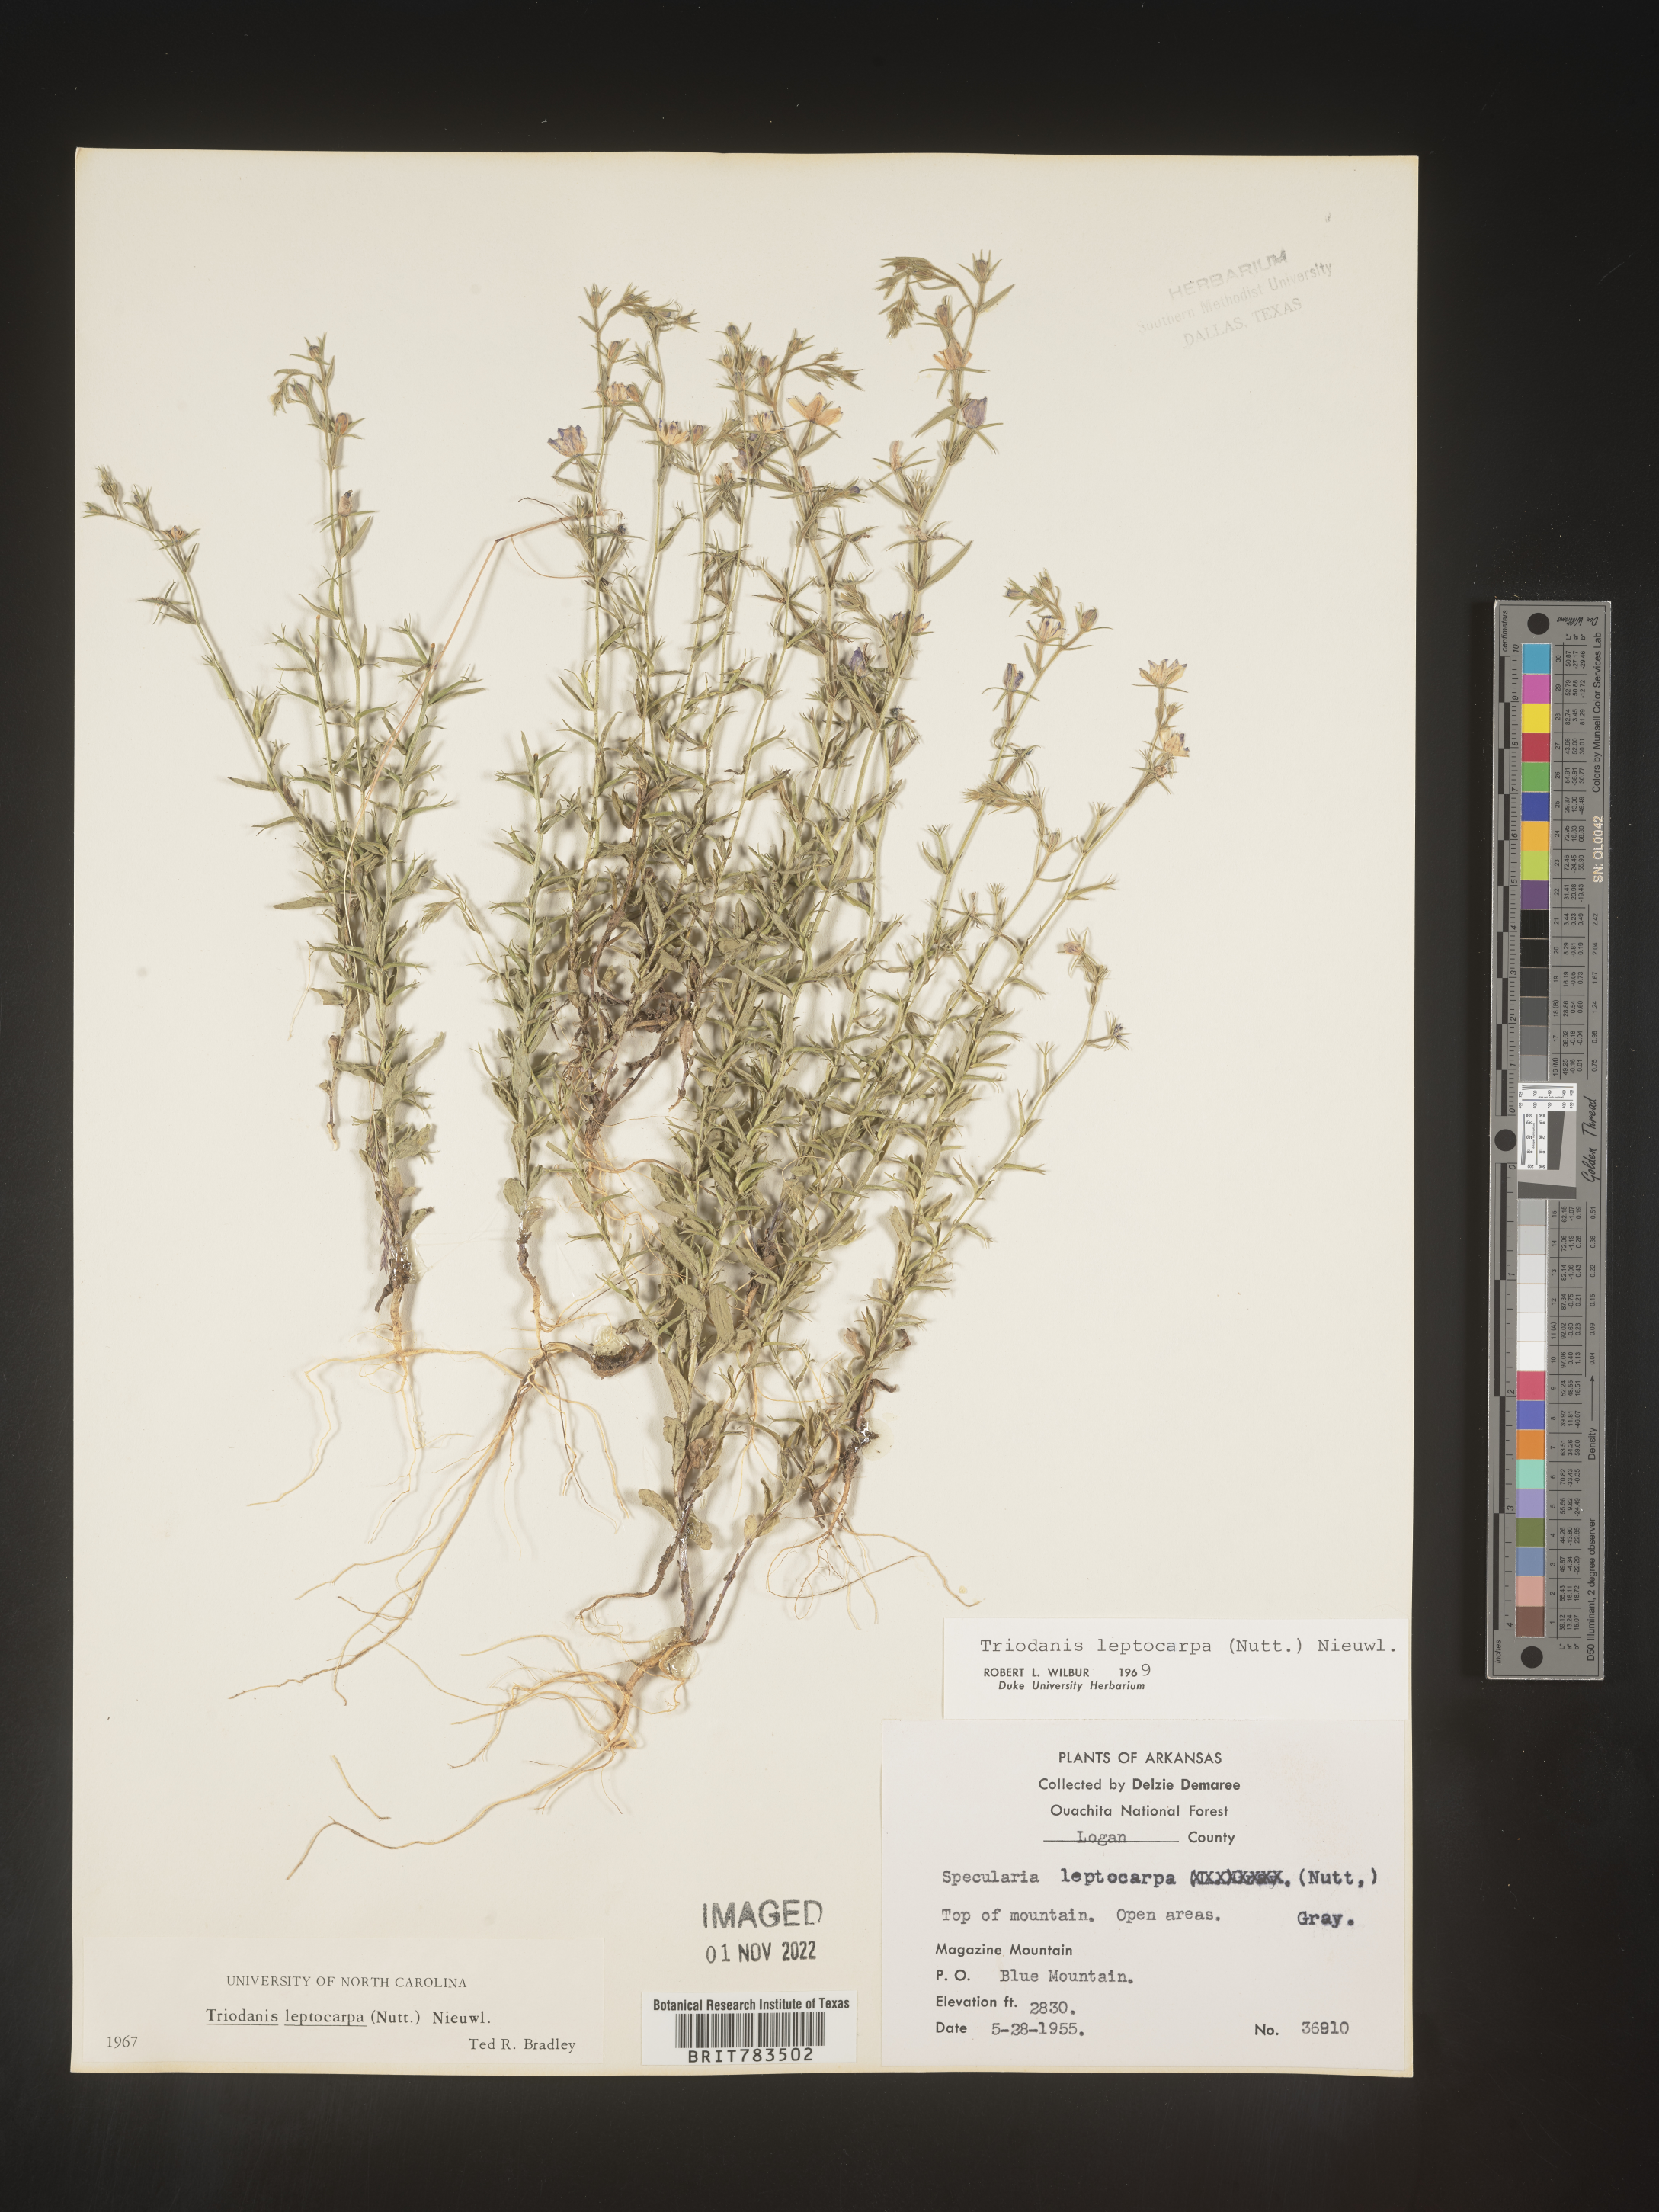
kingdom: Plantae
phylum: Tracheophyta
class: Magnoliopsida
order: Asterales
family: Campanulaceae
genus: Triodanis
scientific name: Triodanis leptocarpa
